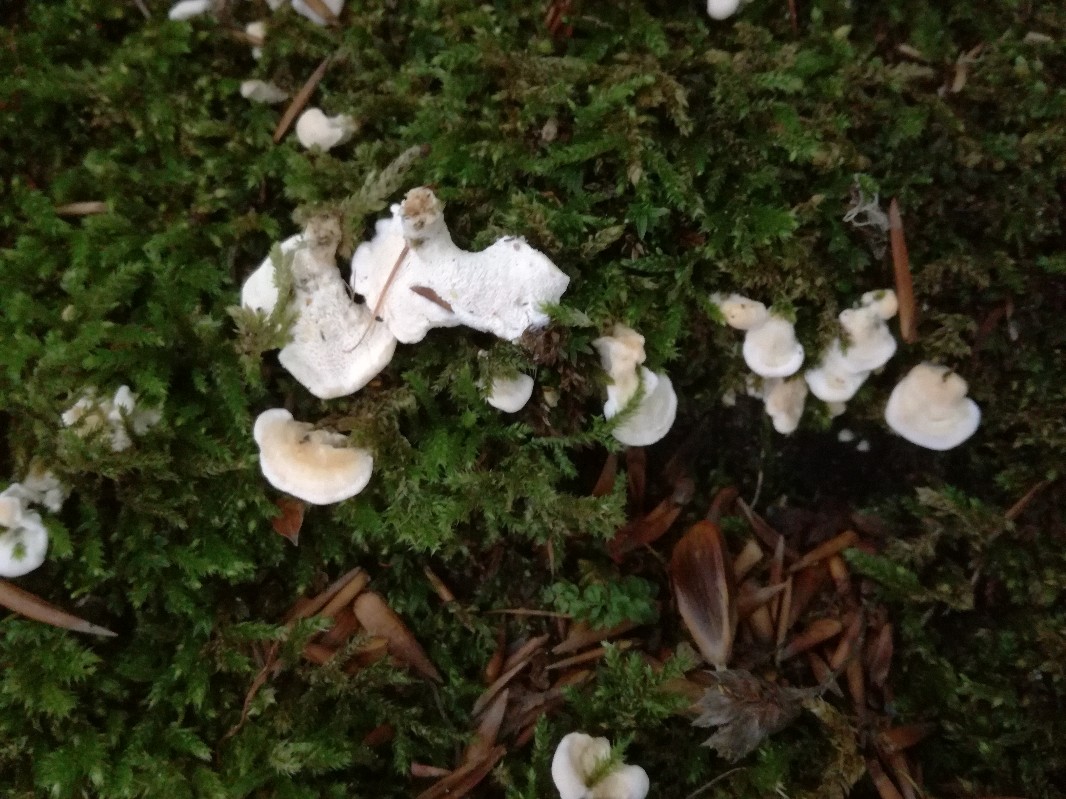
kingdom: Fungi
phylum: Basidiomycota
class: Agaricomycetes
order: Cantharellales
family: Hydnaceae
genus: Sistotrema
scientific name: Sistotrema confluens
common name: stilket kroneskorpe
